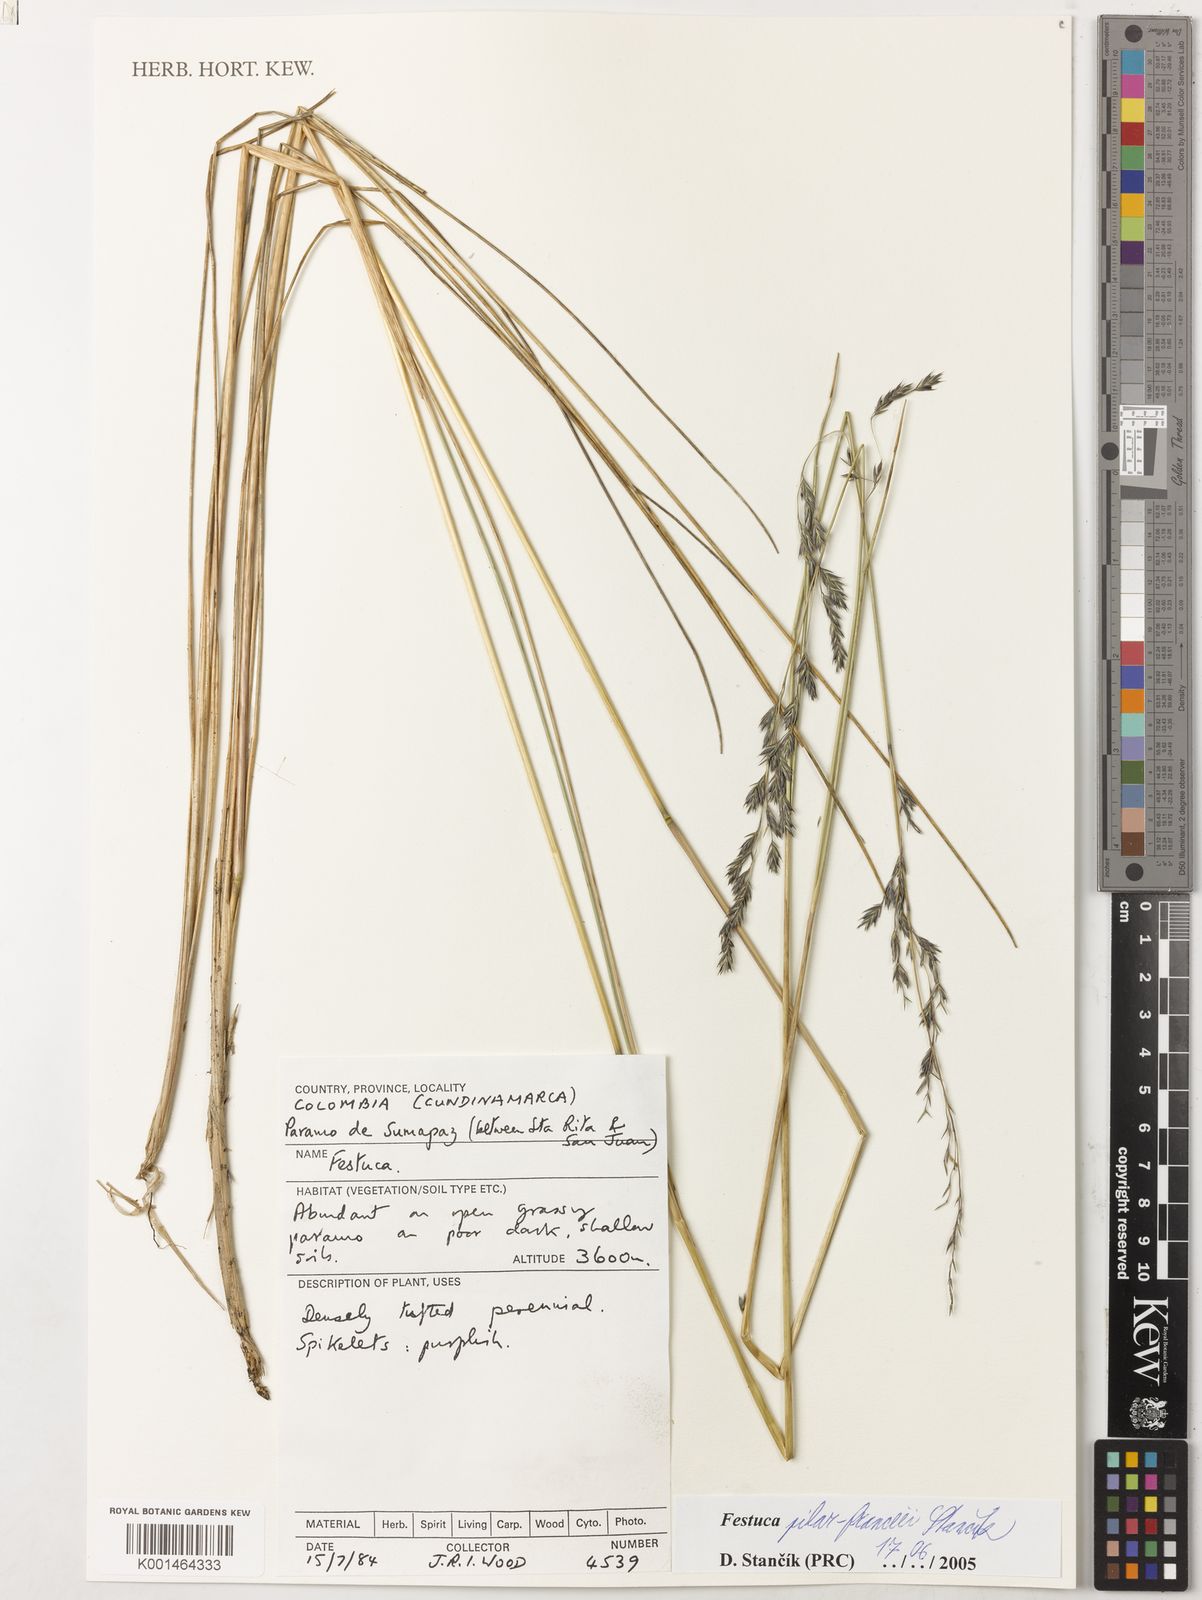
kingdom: Plantae
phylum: Tracheophyta
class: Liliopsida
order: Poales
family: Poaceae
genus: Festuca
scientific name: Festuca
